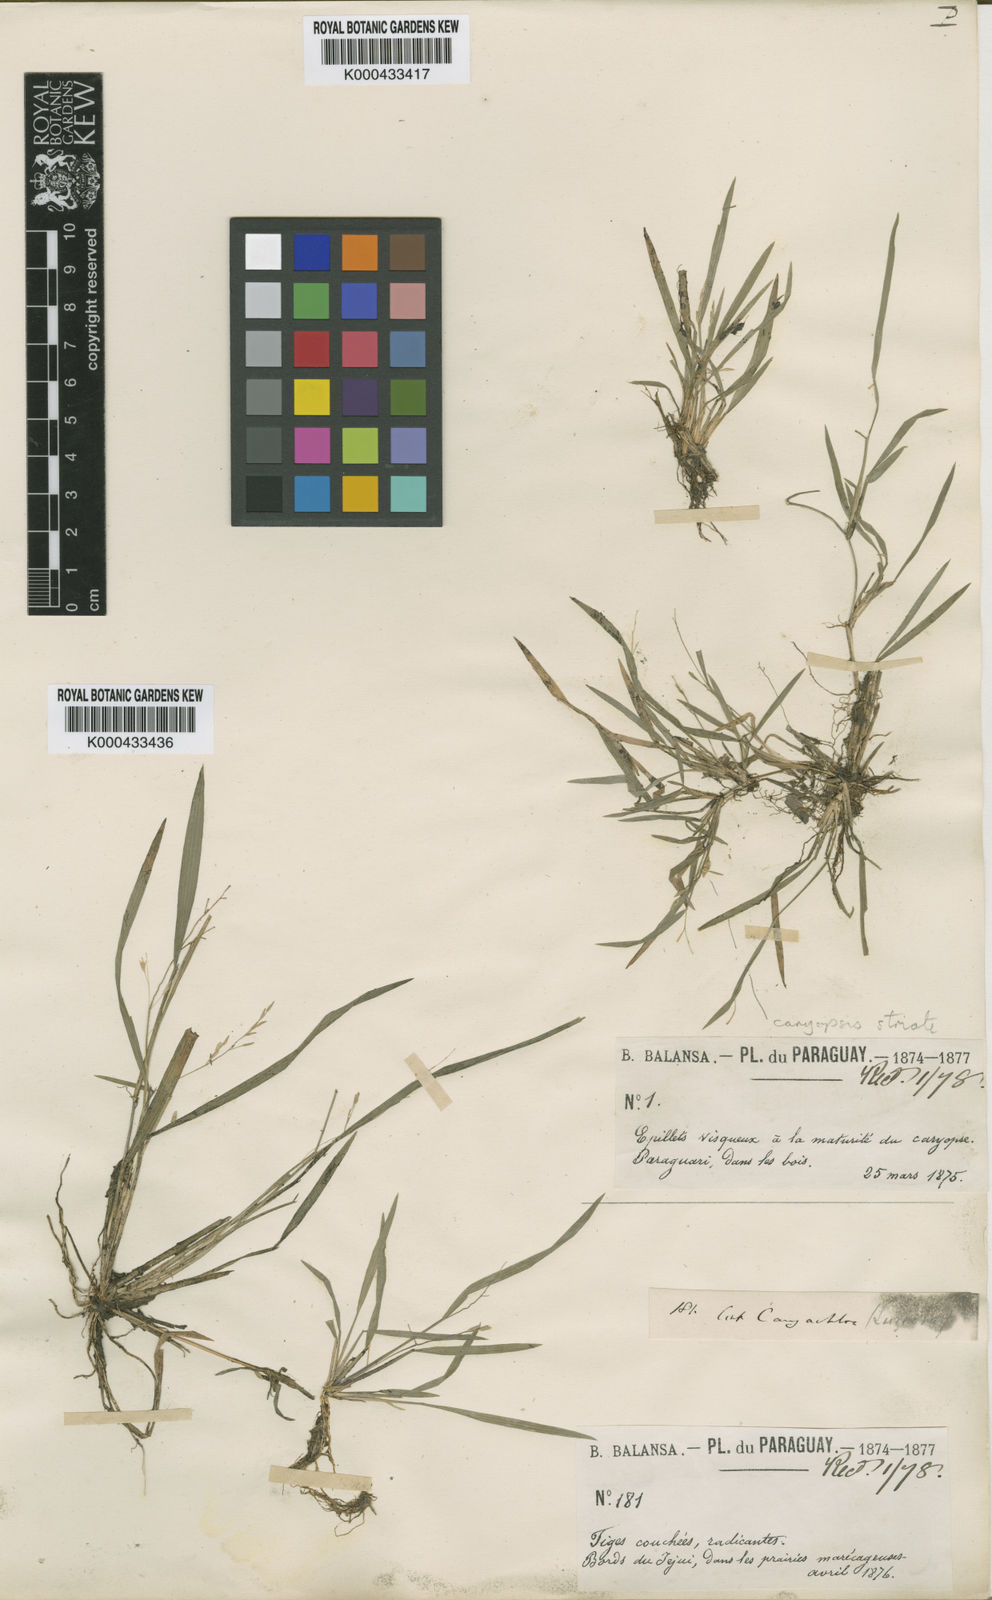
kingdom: Plantae
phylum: Tracheophyta
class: Liliopsida
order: Poales
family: Poaceae
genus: Luziola
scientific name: Luziola bahiensis
